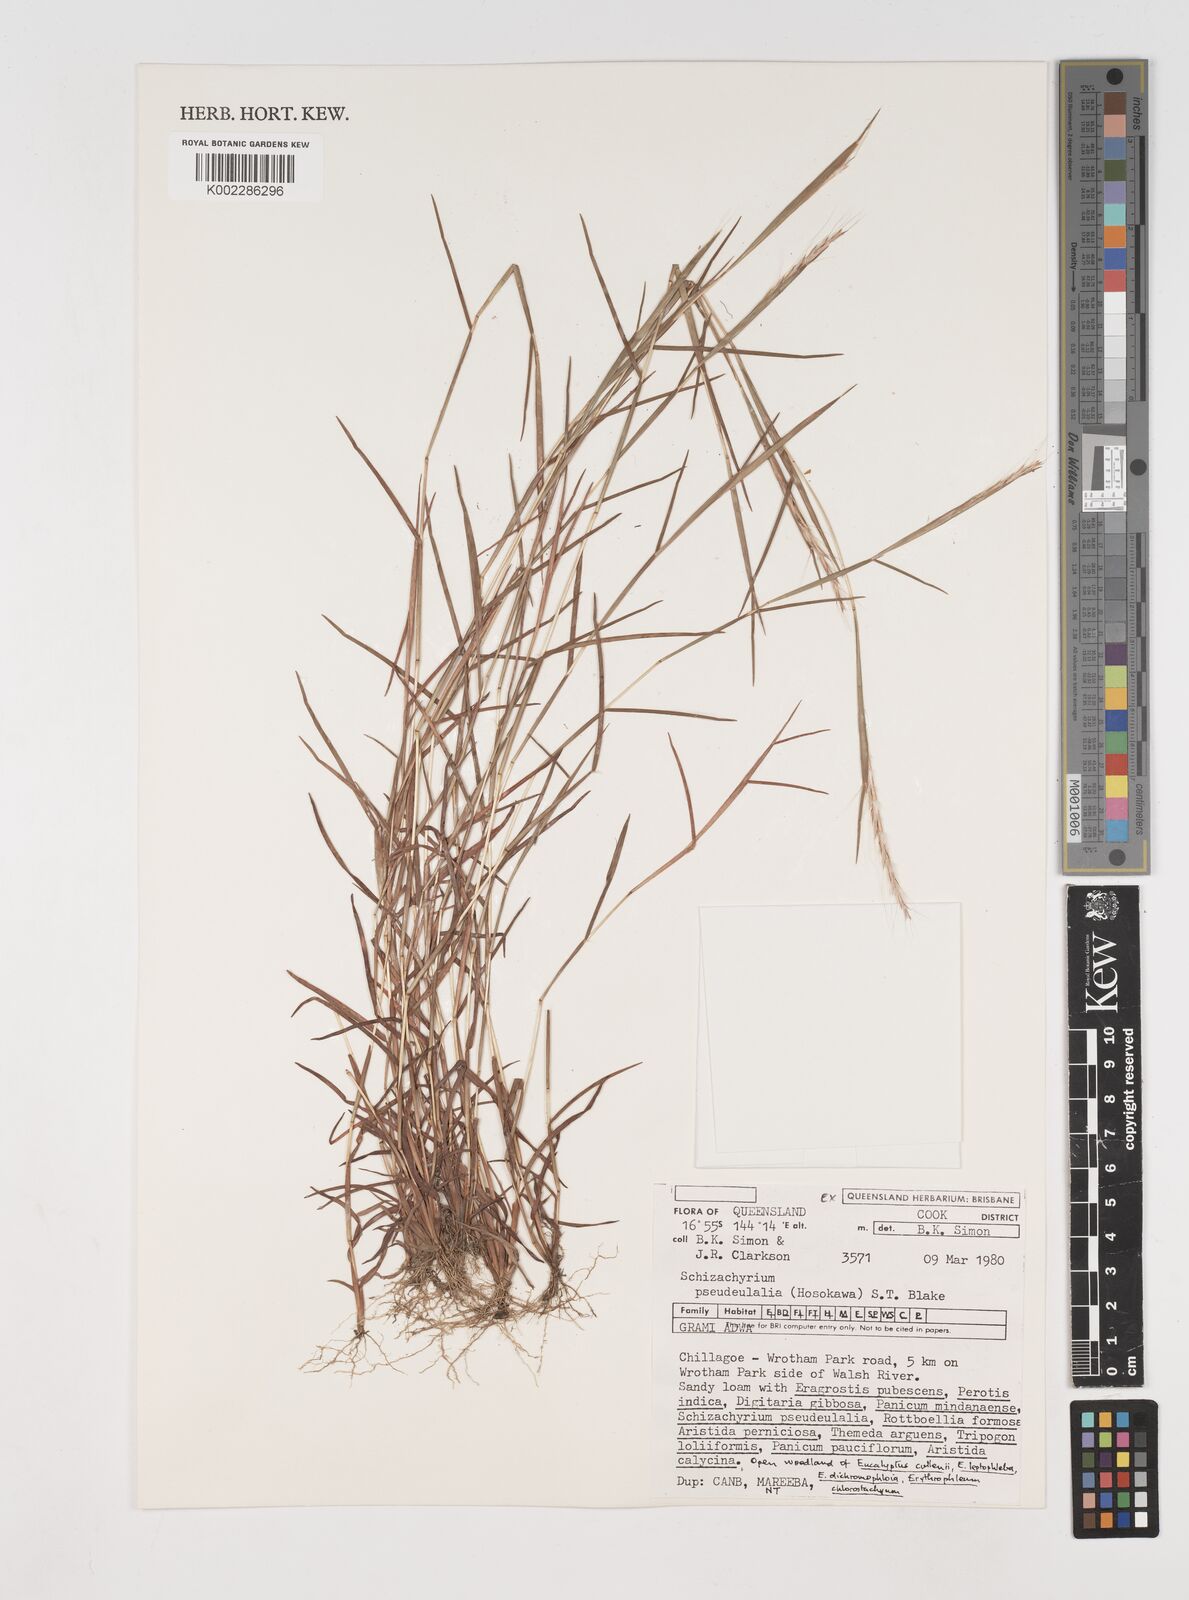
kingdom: Plantae
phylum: Tracheophyta
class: Liliopsida
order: Poales
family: Poaceae
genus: Schizachyrium
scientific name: Schizachyrium pseudeulalia
